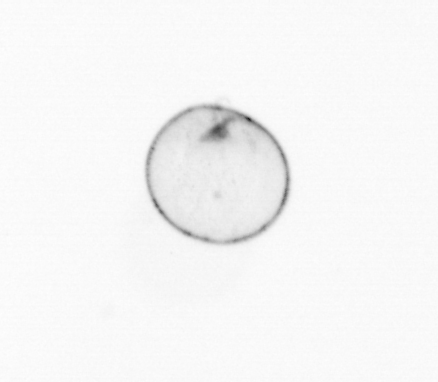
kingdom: Chromista
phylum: Myzozoa
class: Dinophyceae
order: Noctilucales
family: Noctilucaceae
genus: Noctiluca
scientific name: Noctiluca scintillans
